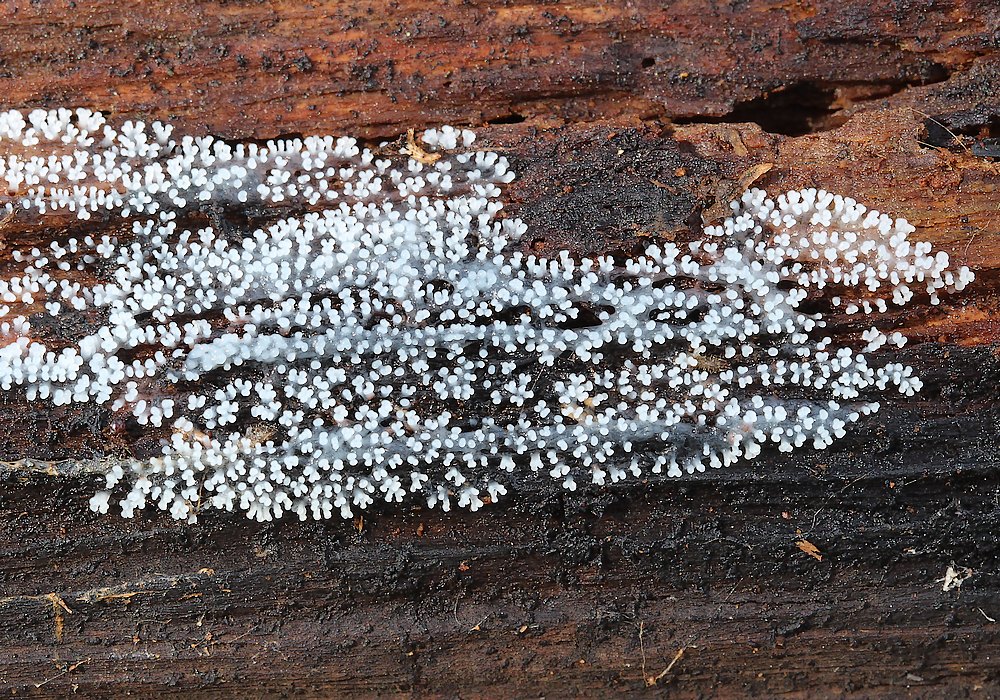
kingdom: Protozoa
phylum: Mycetozoa
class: Protosteliomycetes
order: Ceratiomyxales
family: Ceratiomyxaceae
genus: Ceratiomyxa
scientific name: Ceratiomyxa fruticulosa
